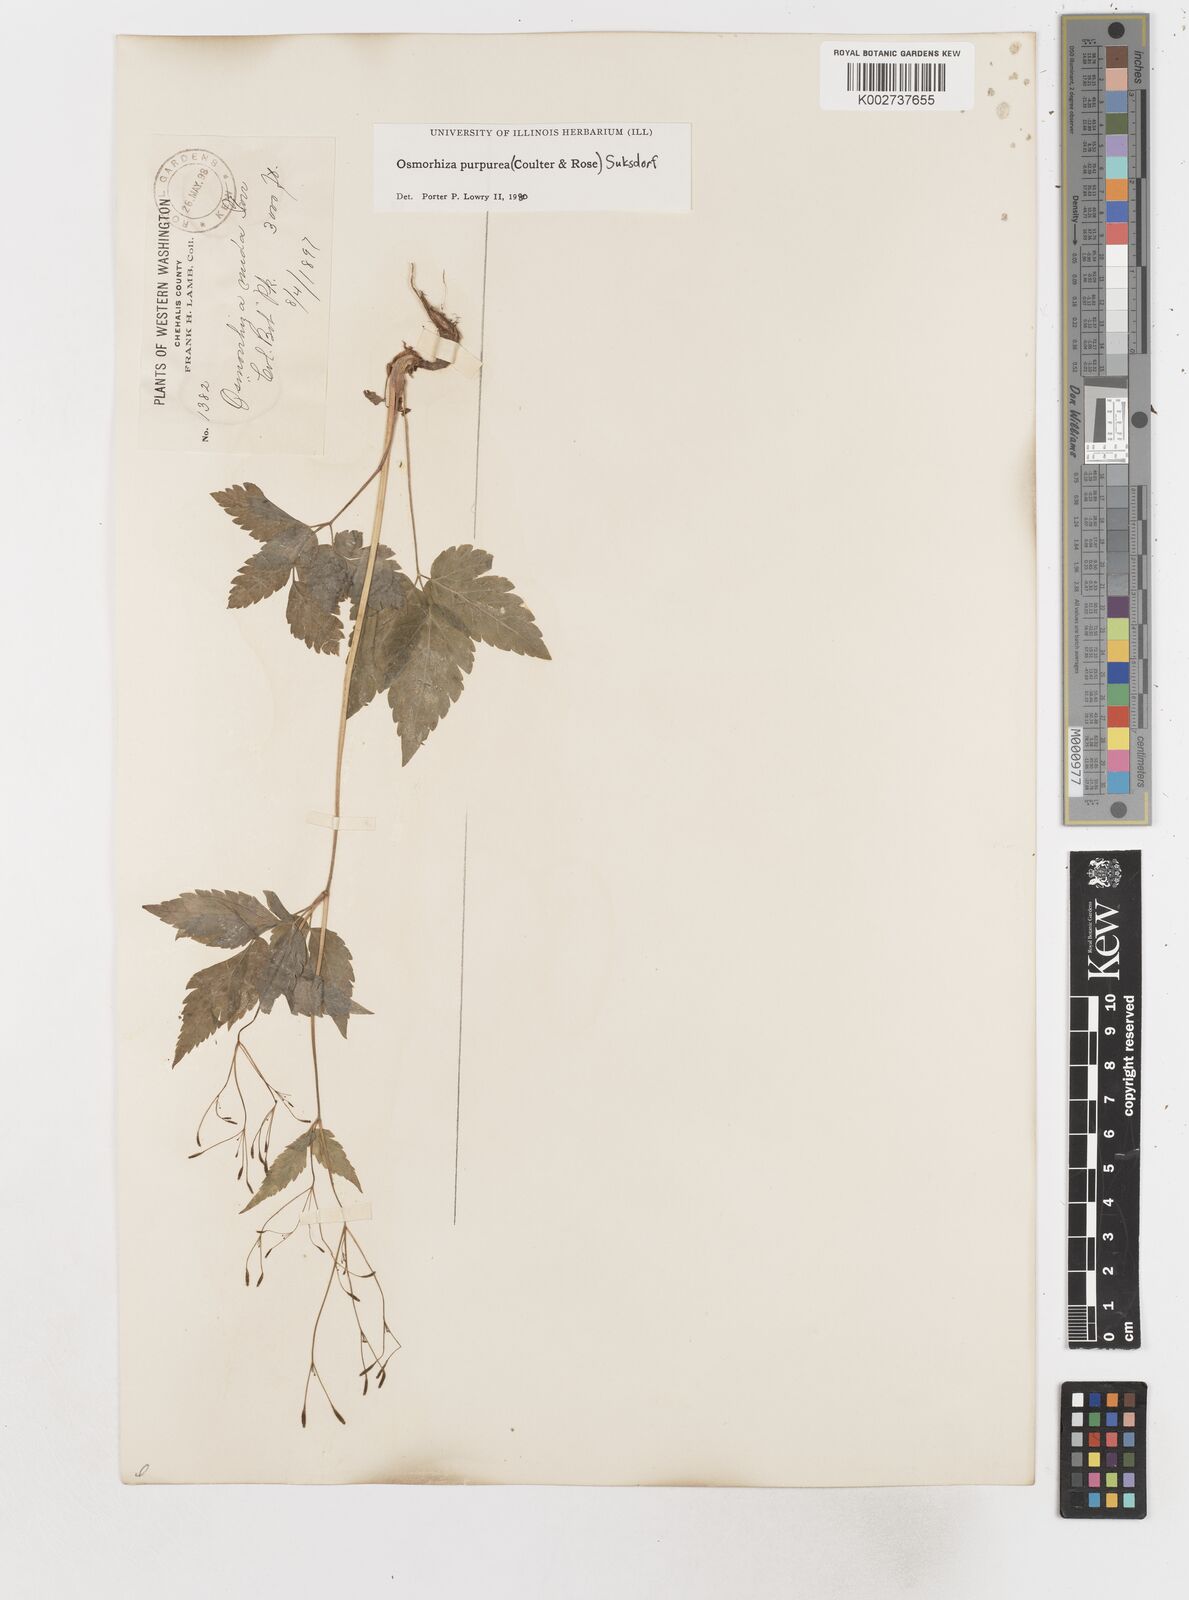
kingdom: Plantae
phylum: Tracheophyta
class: Magnoliopsida
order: Apiales
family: Apiaceae
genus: Osmorhiza
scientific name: Osmorhiza purpurea
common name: Purple sweet cicely
